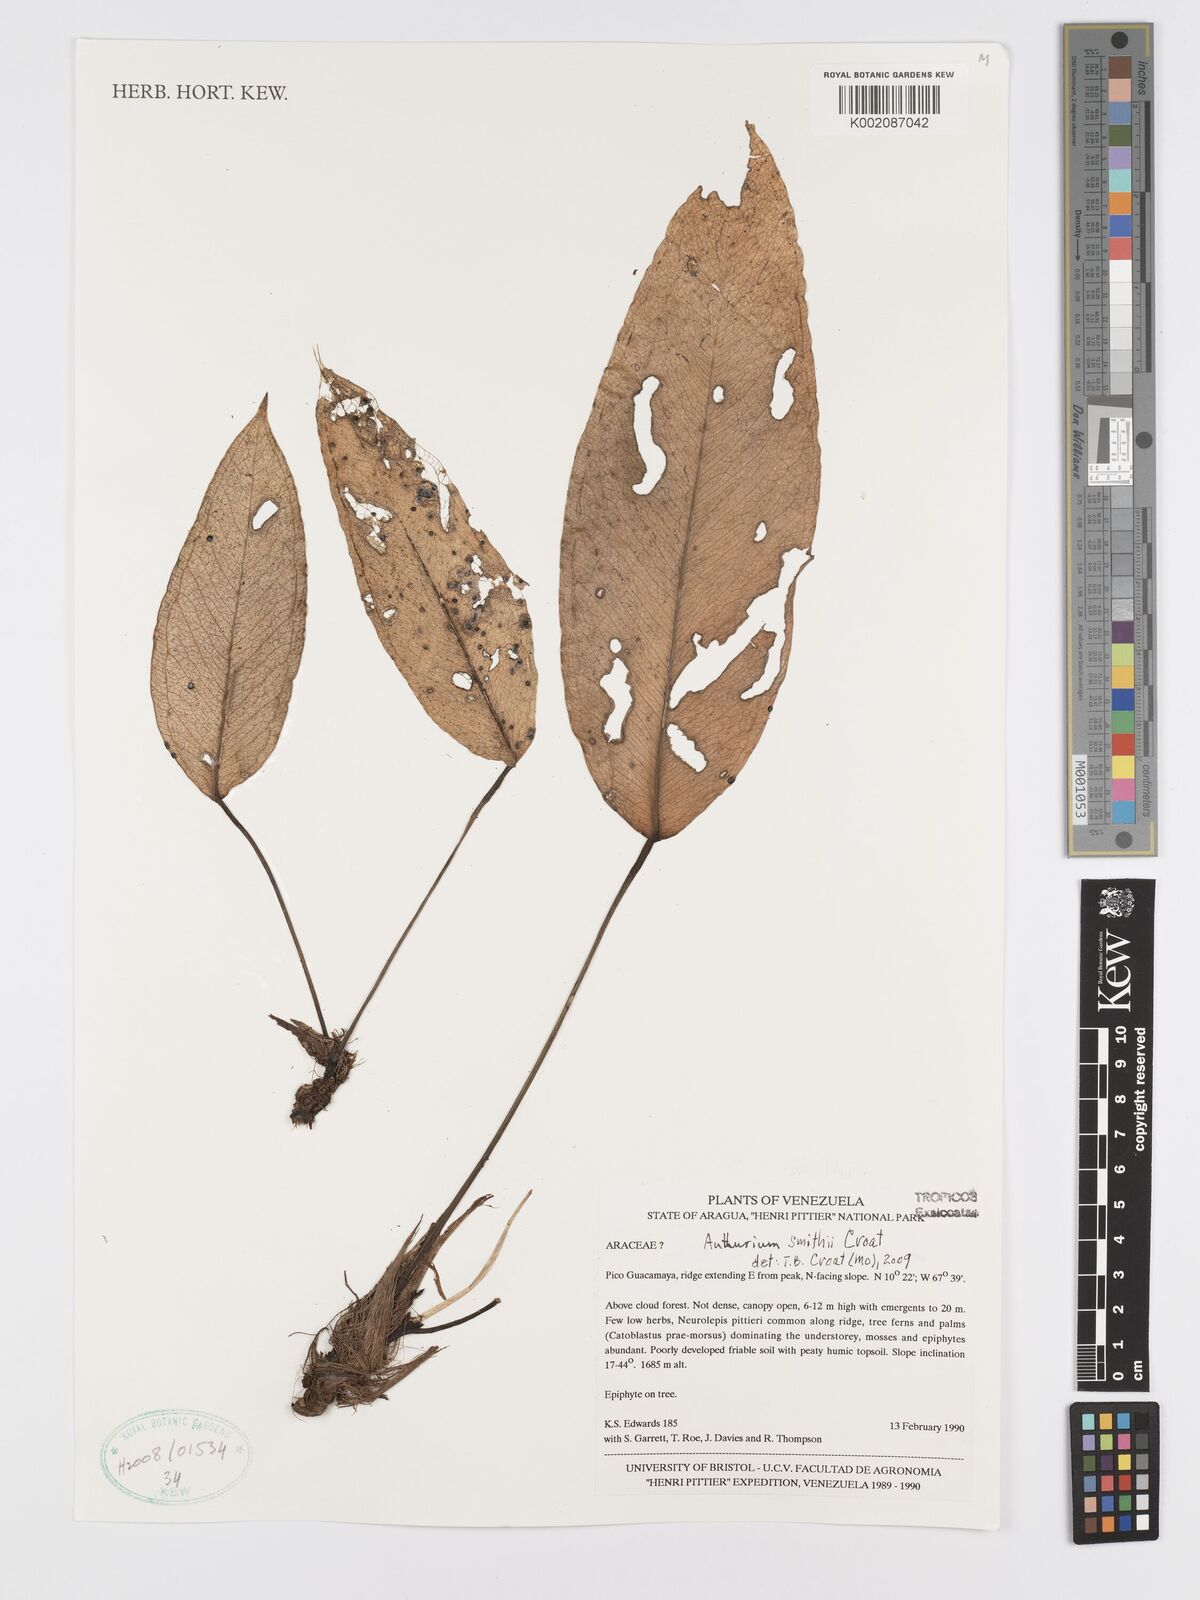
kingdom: Plantae
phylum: Tracheophyta
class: Liliopsida
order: Alismatales
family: Araceae
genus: Anthurium
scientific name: Anthurium smithii
